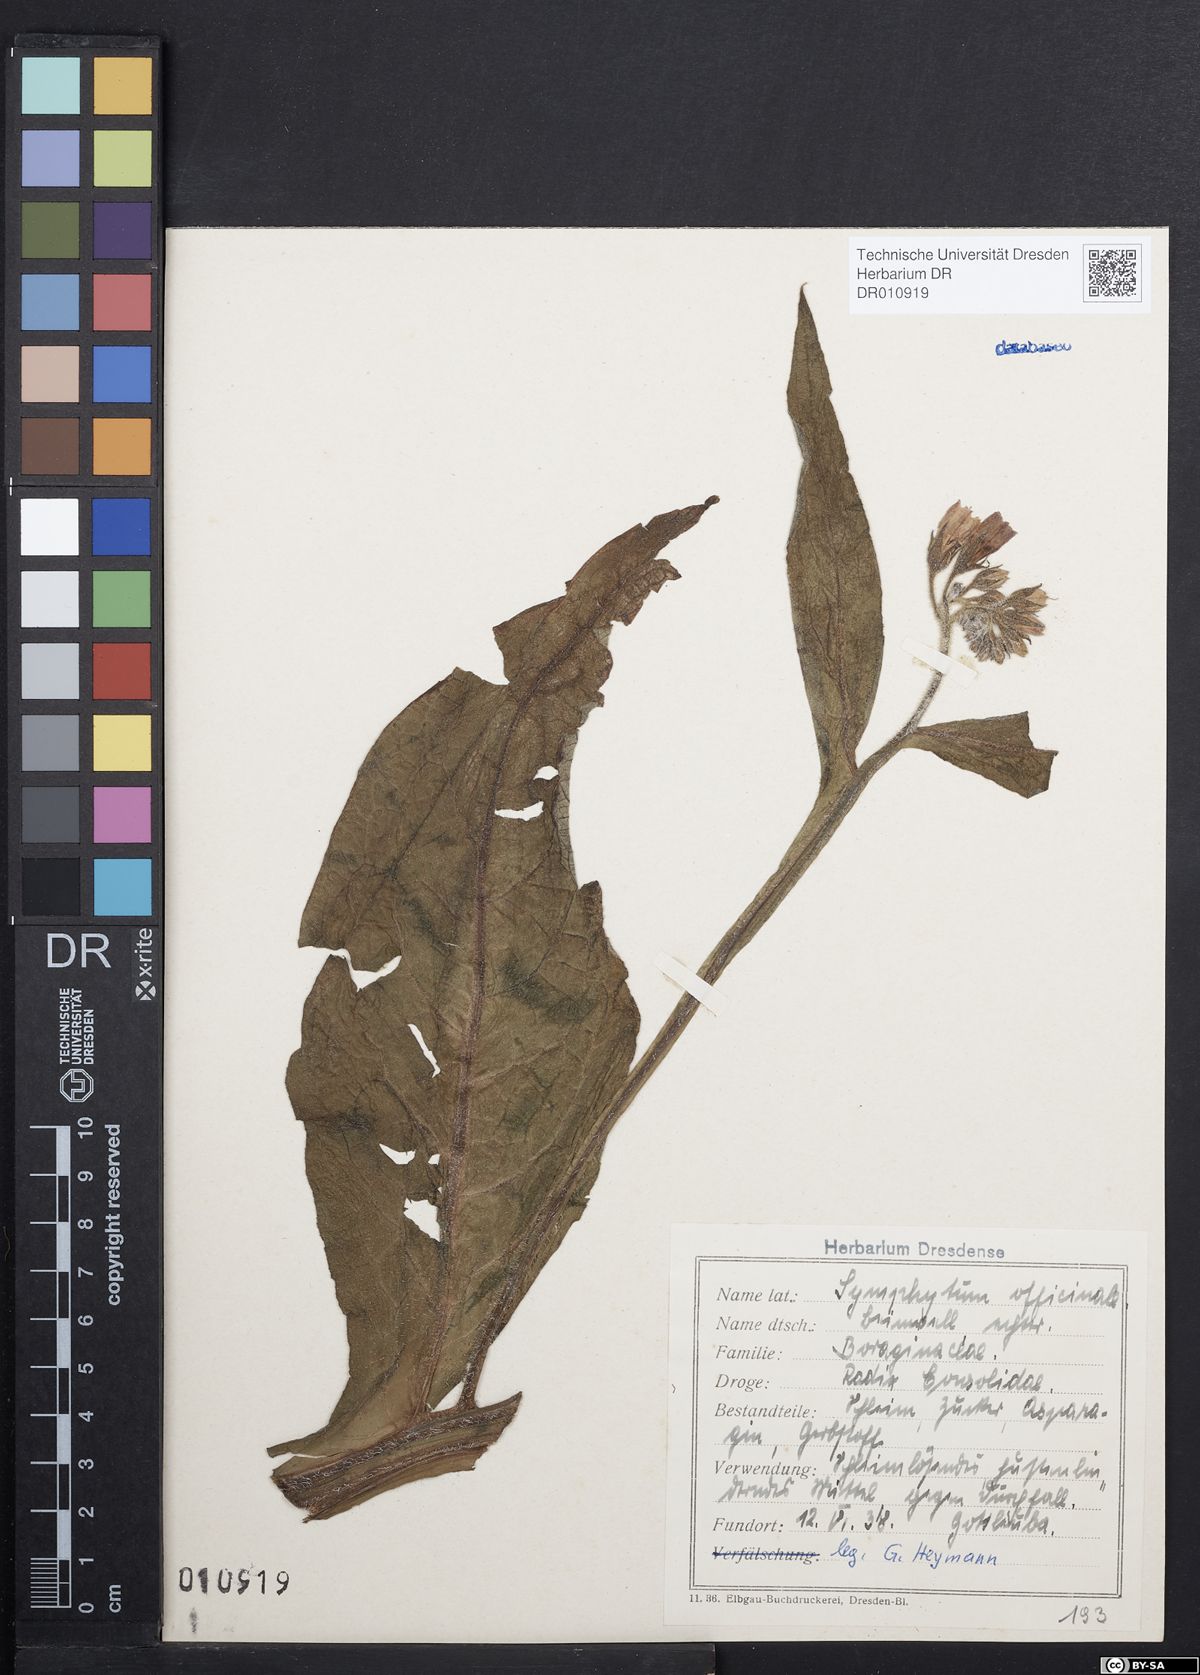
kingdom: Plantae
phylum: Tracheophyta
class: Magnoliopsida
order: Boraginales
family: Boraginaceae
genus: Symphytum
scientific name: Symphytum officinale
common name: Common comfrey
